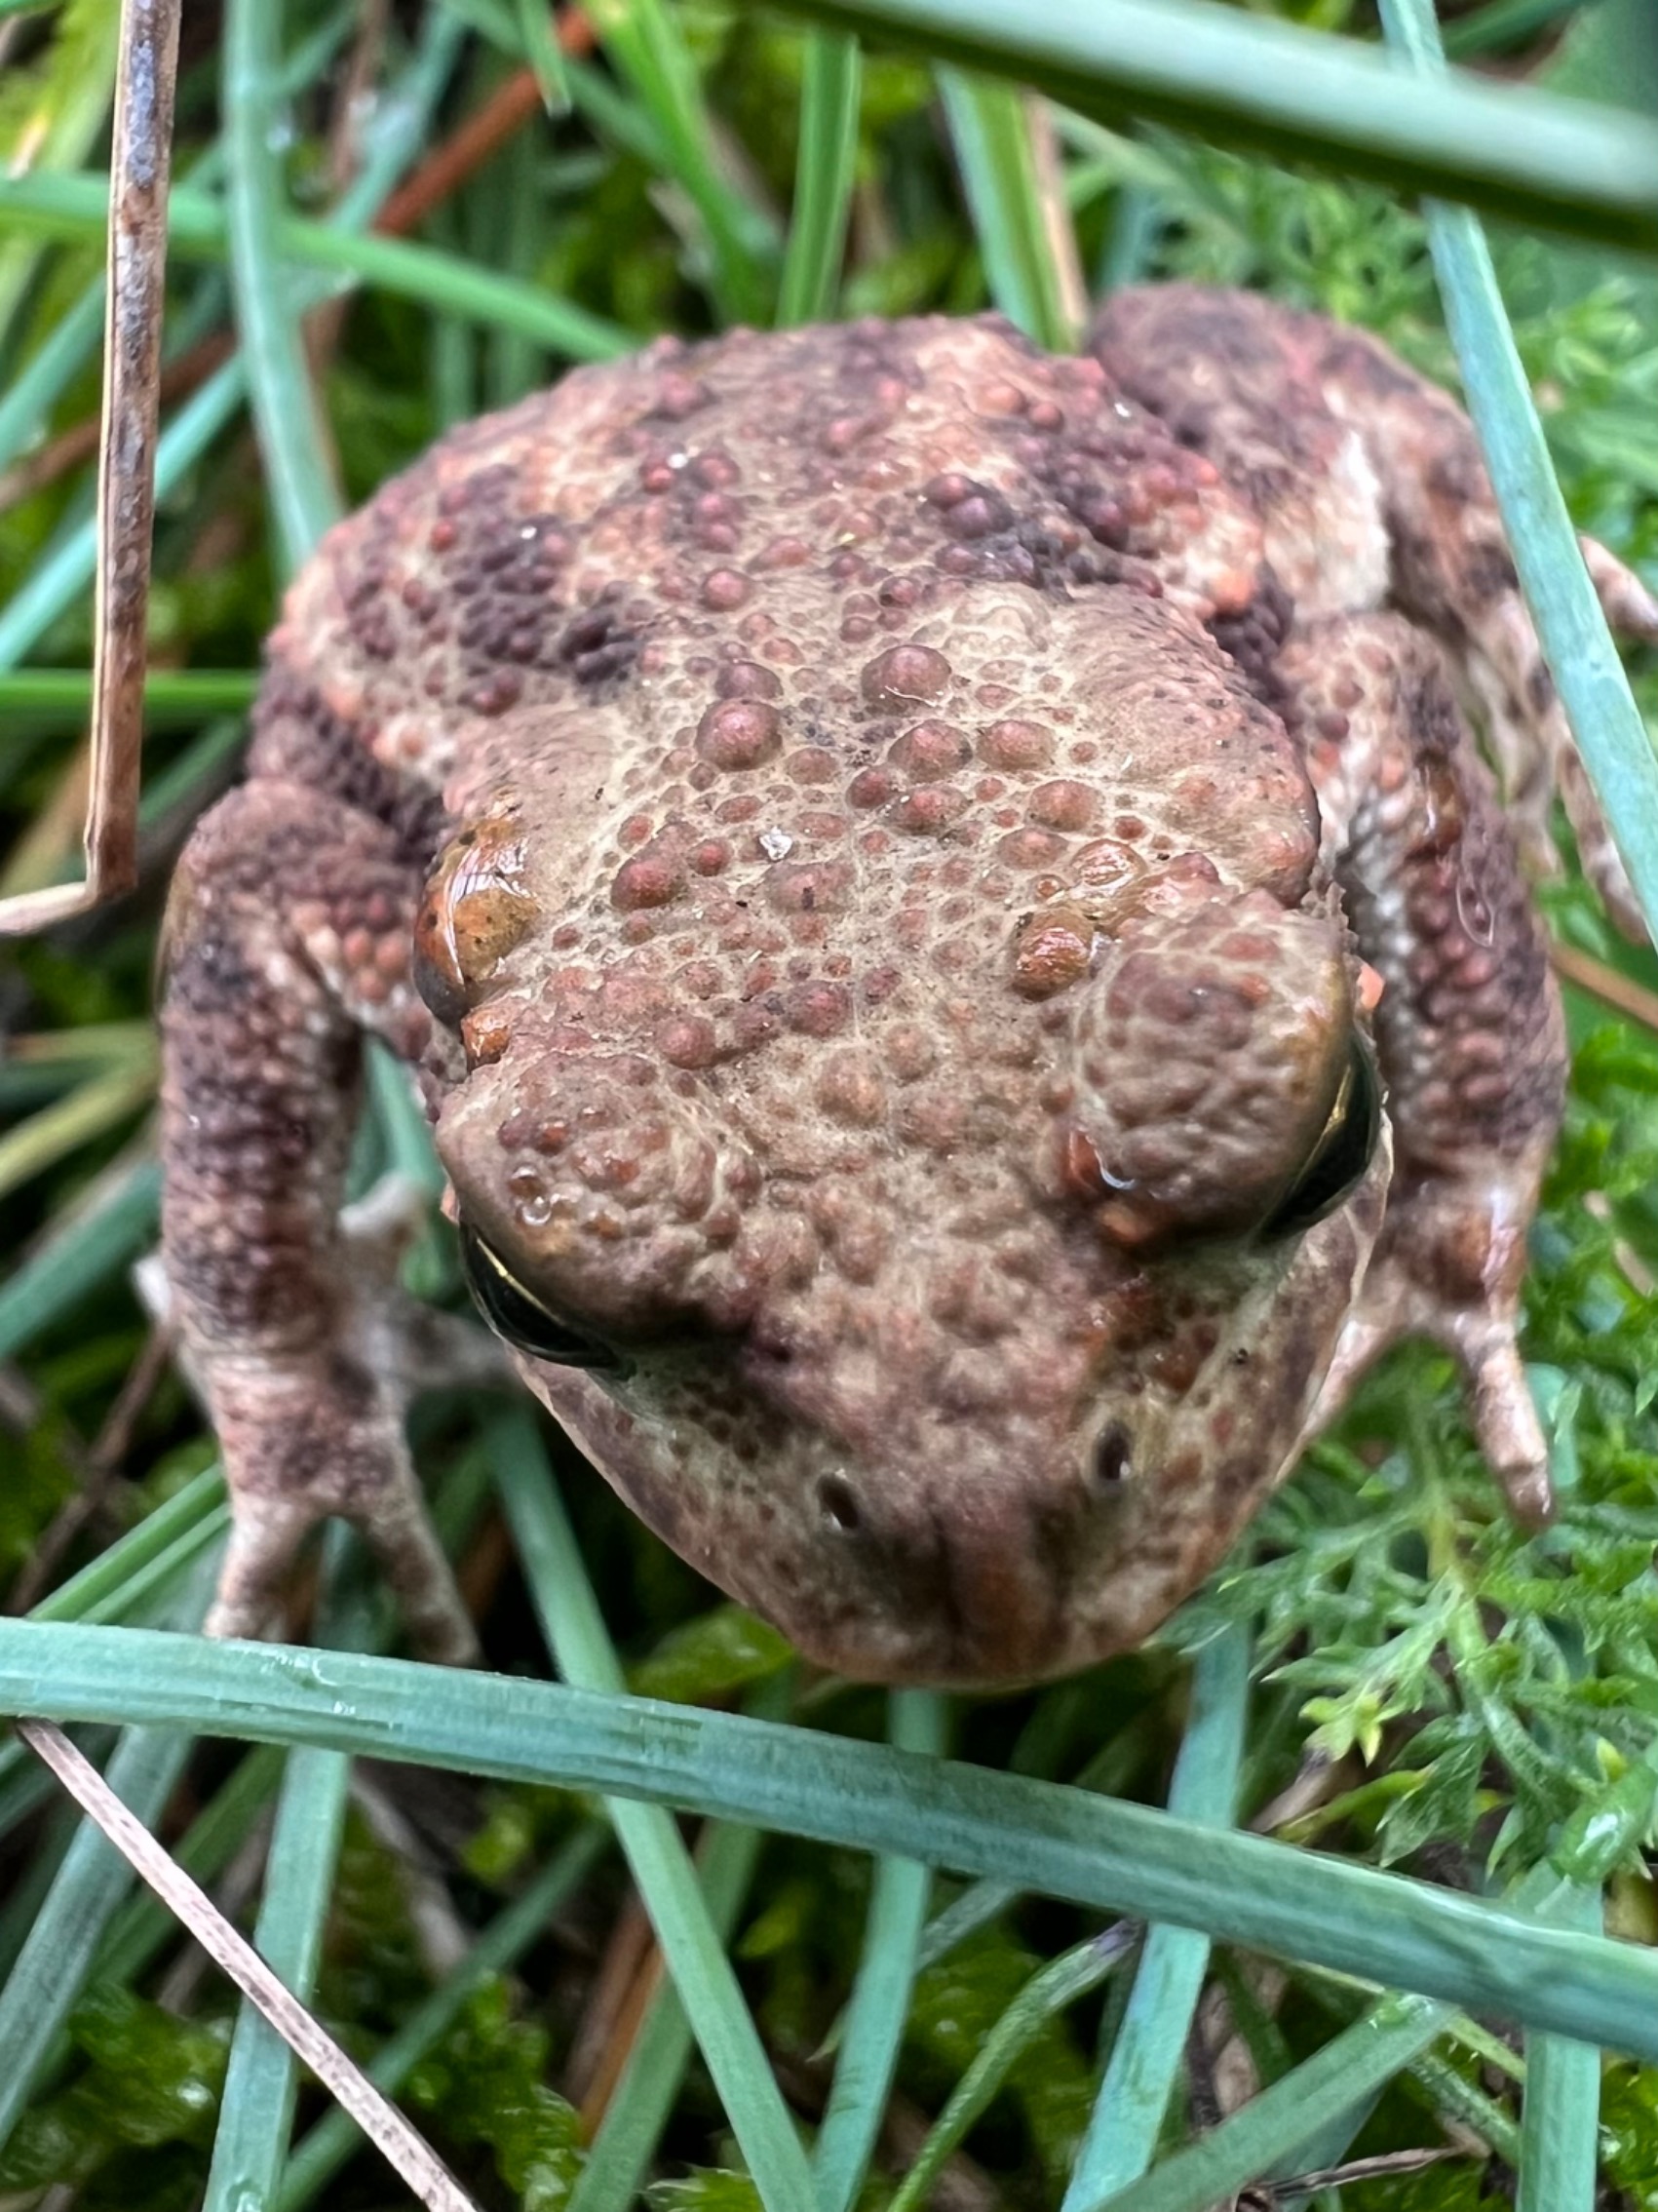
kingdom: Animalia
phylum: Chordata
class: Amphibia
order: Anura
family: Bufonidae
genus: Bufo
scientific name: Bufo bufo
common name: Skrubtudse
